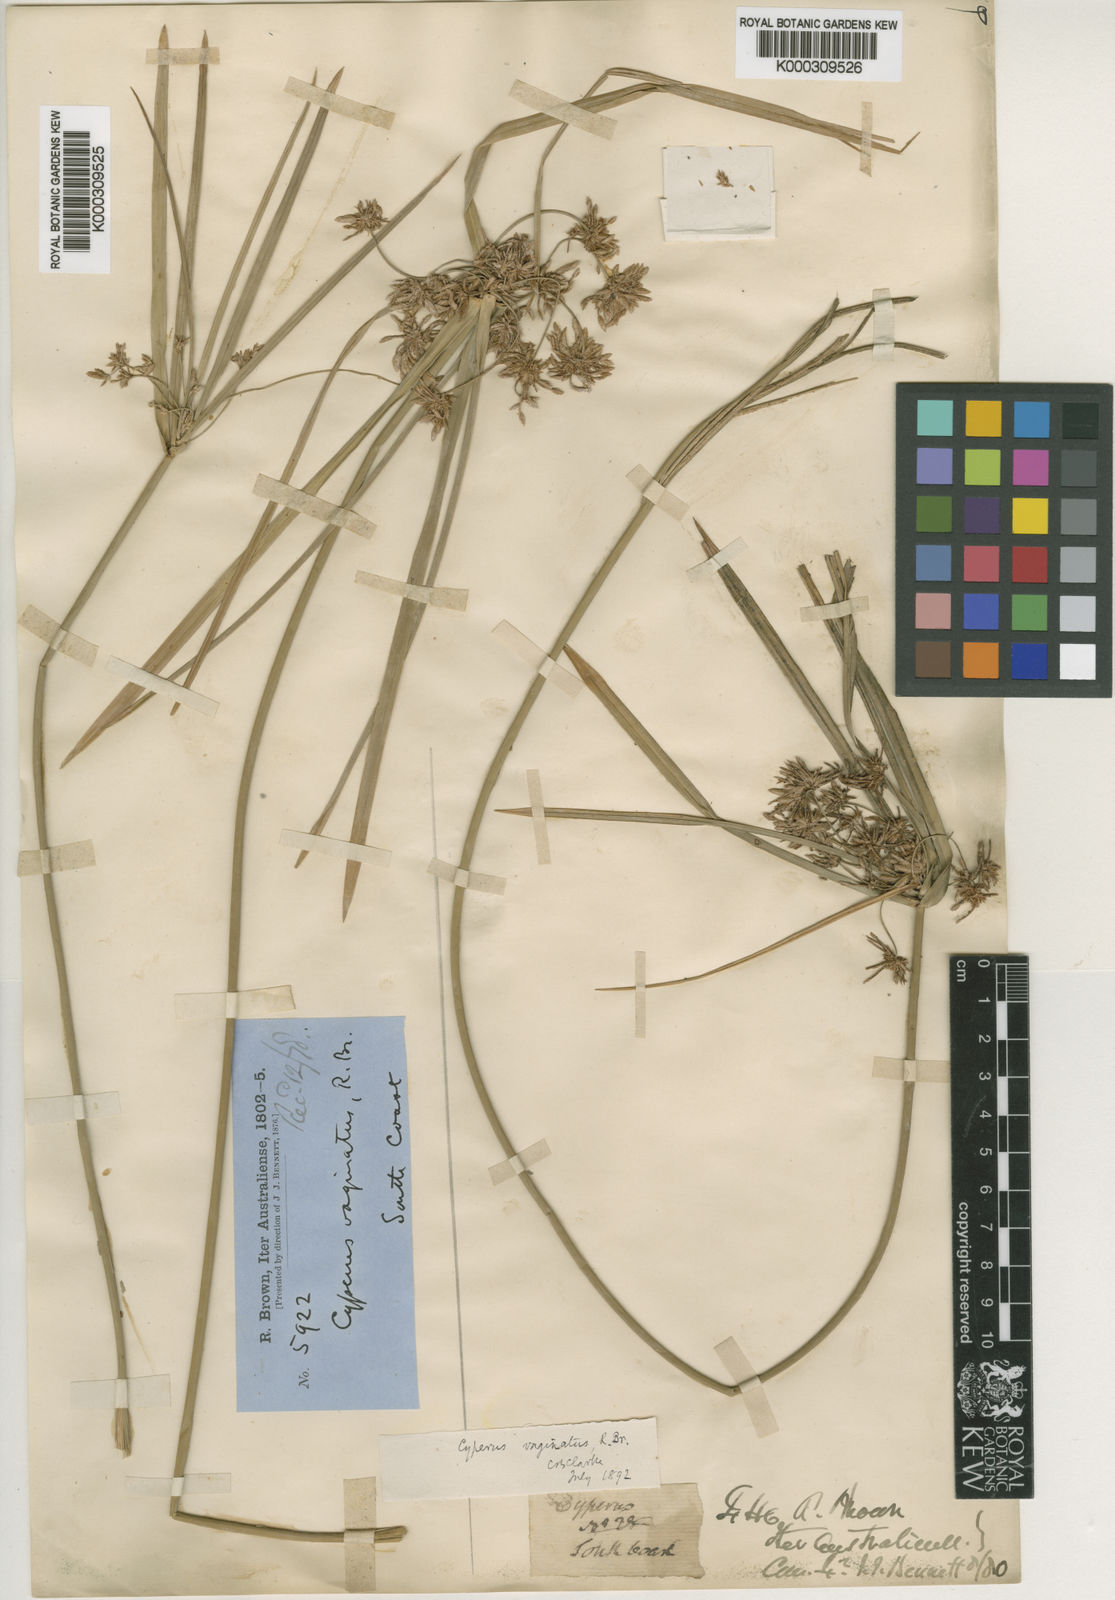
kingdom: Plantae
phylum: Tracheophyta
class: Liliopsida
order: Poales
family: Cyperaceae
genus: Cyperus
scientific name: Cyperus vaginatus
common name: Stiff-leaved flat-sedge
